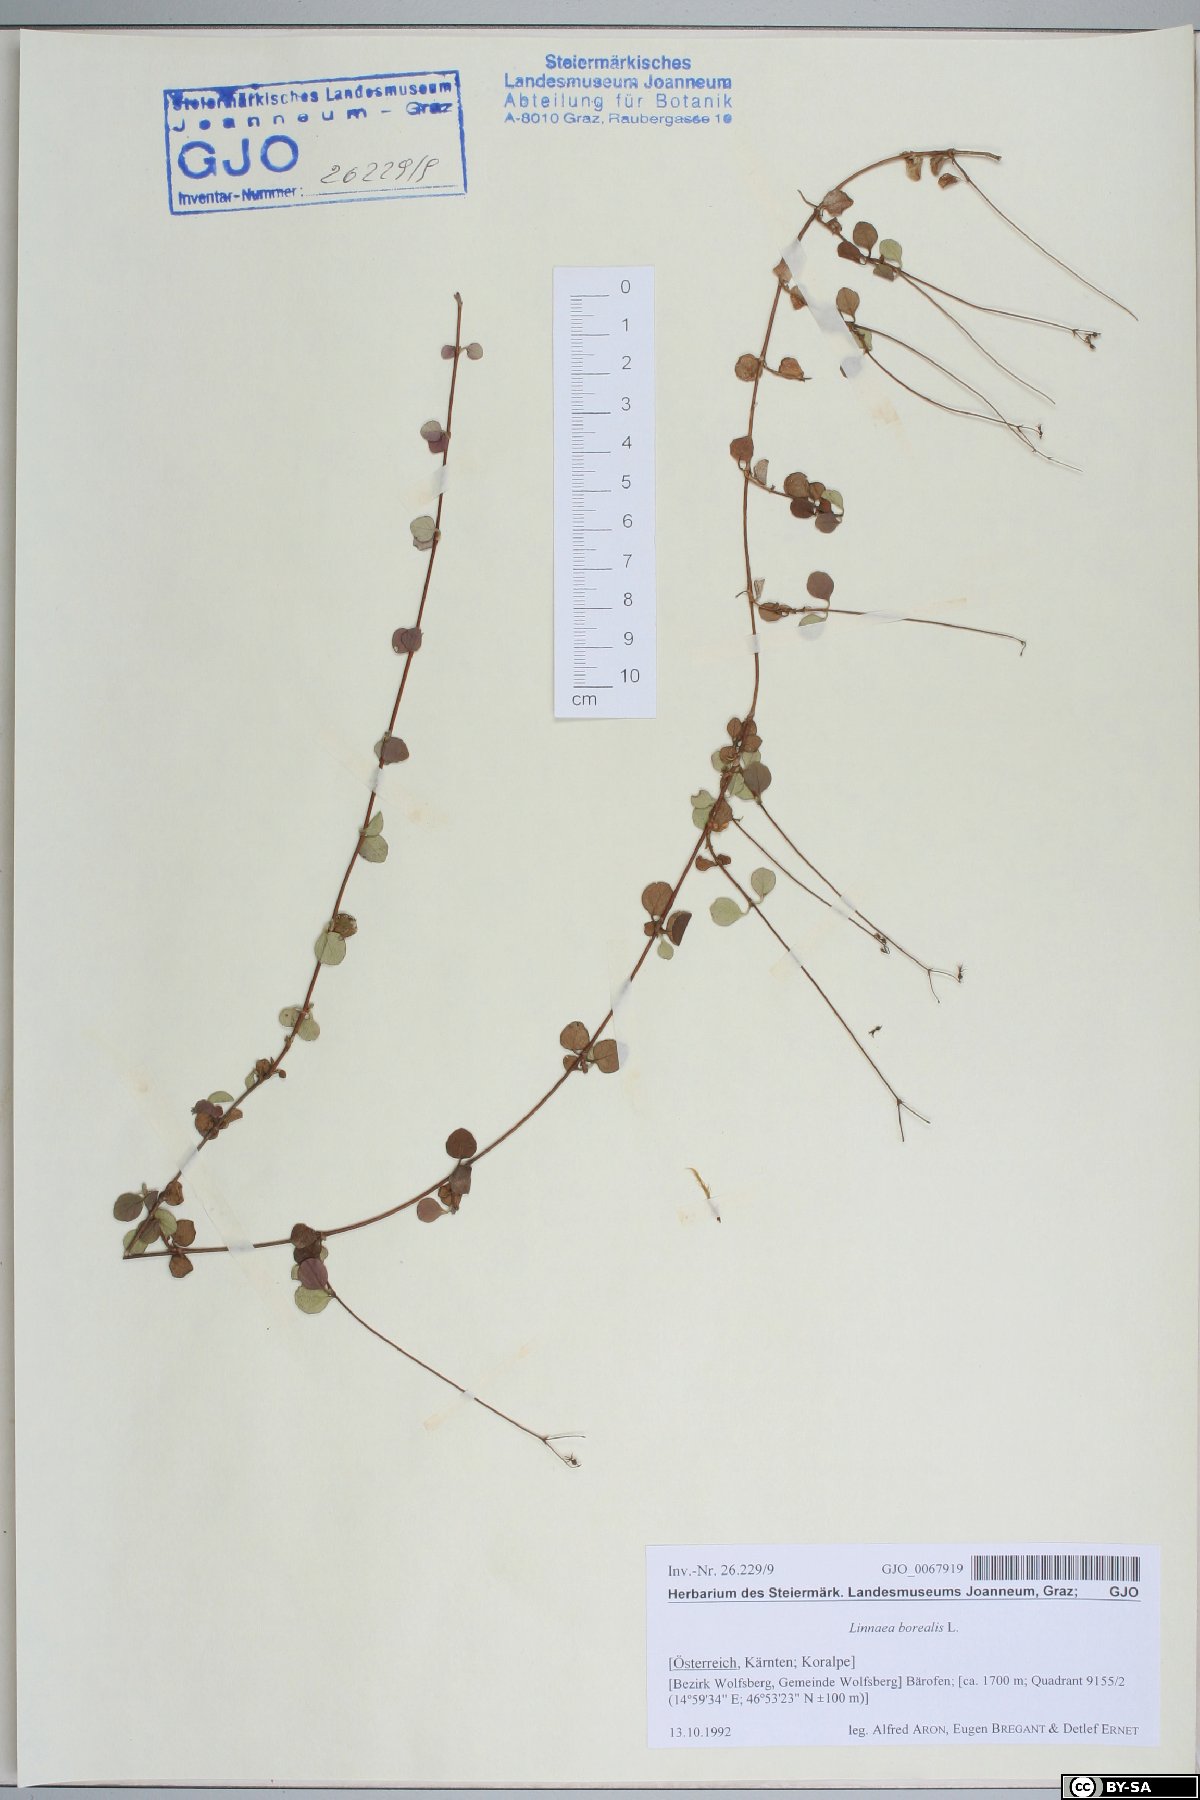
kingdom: Plantae
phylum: Tracheophyta
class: Magnoliopsida
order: Dipsacales
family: Caprifoliaceae
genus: Linnaea
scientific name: Linnaea borealis
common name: Twinflower
